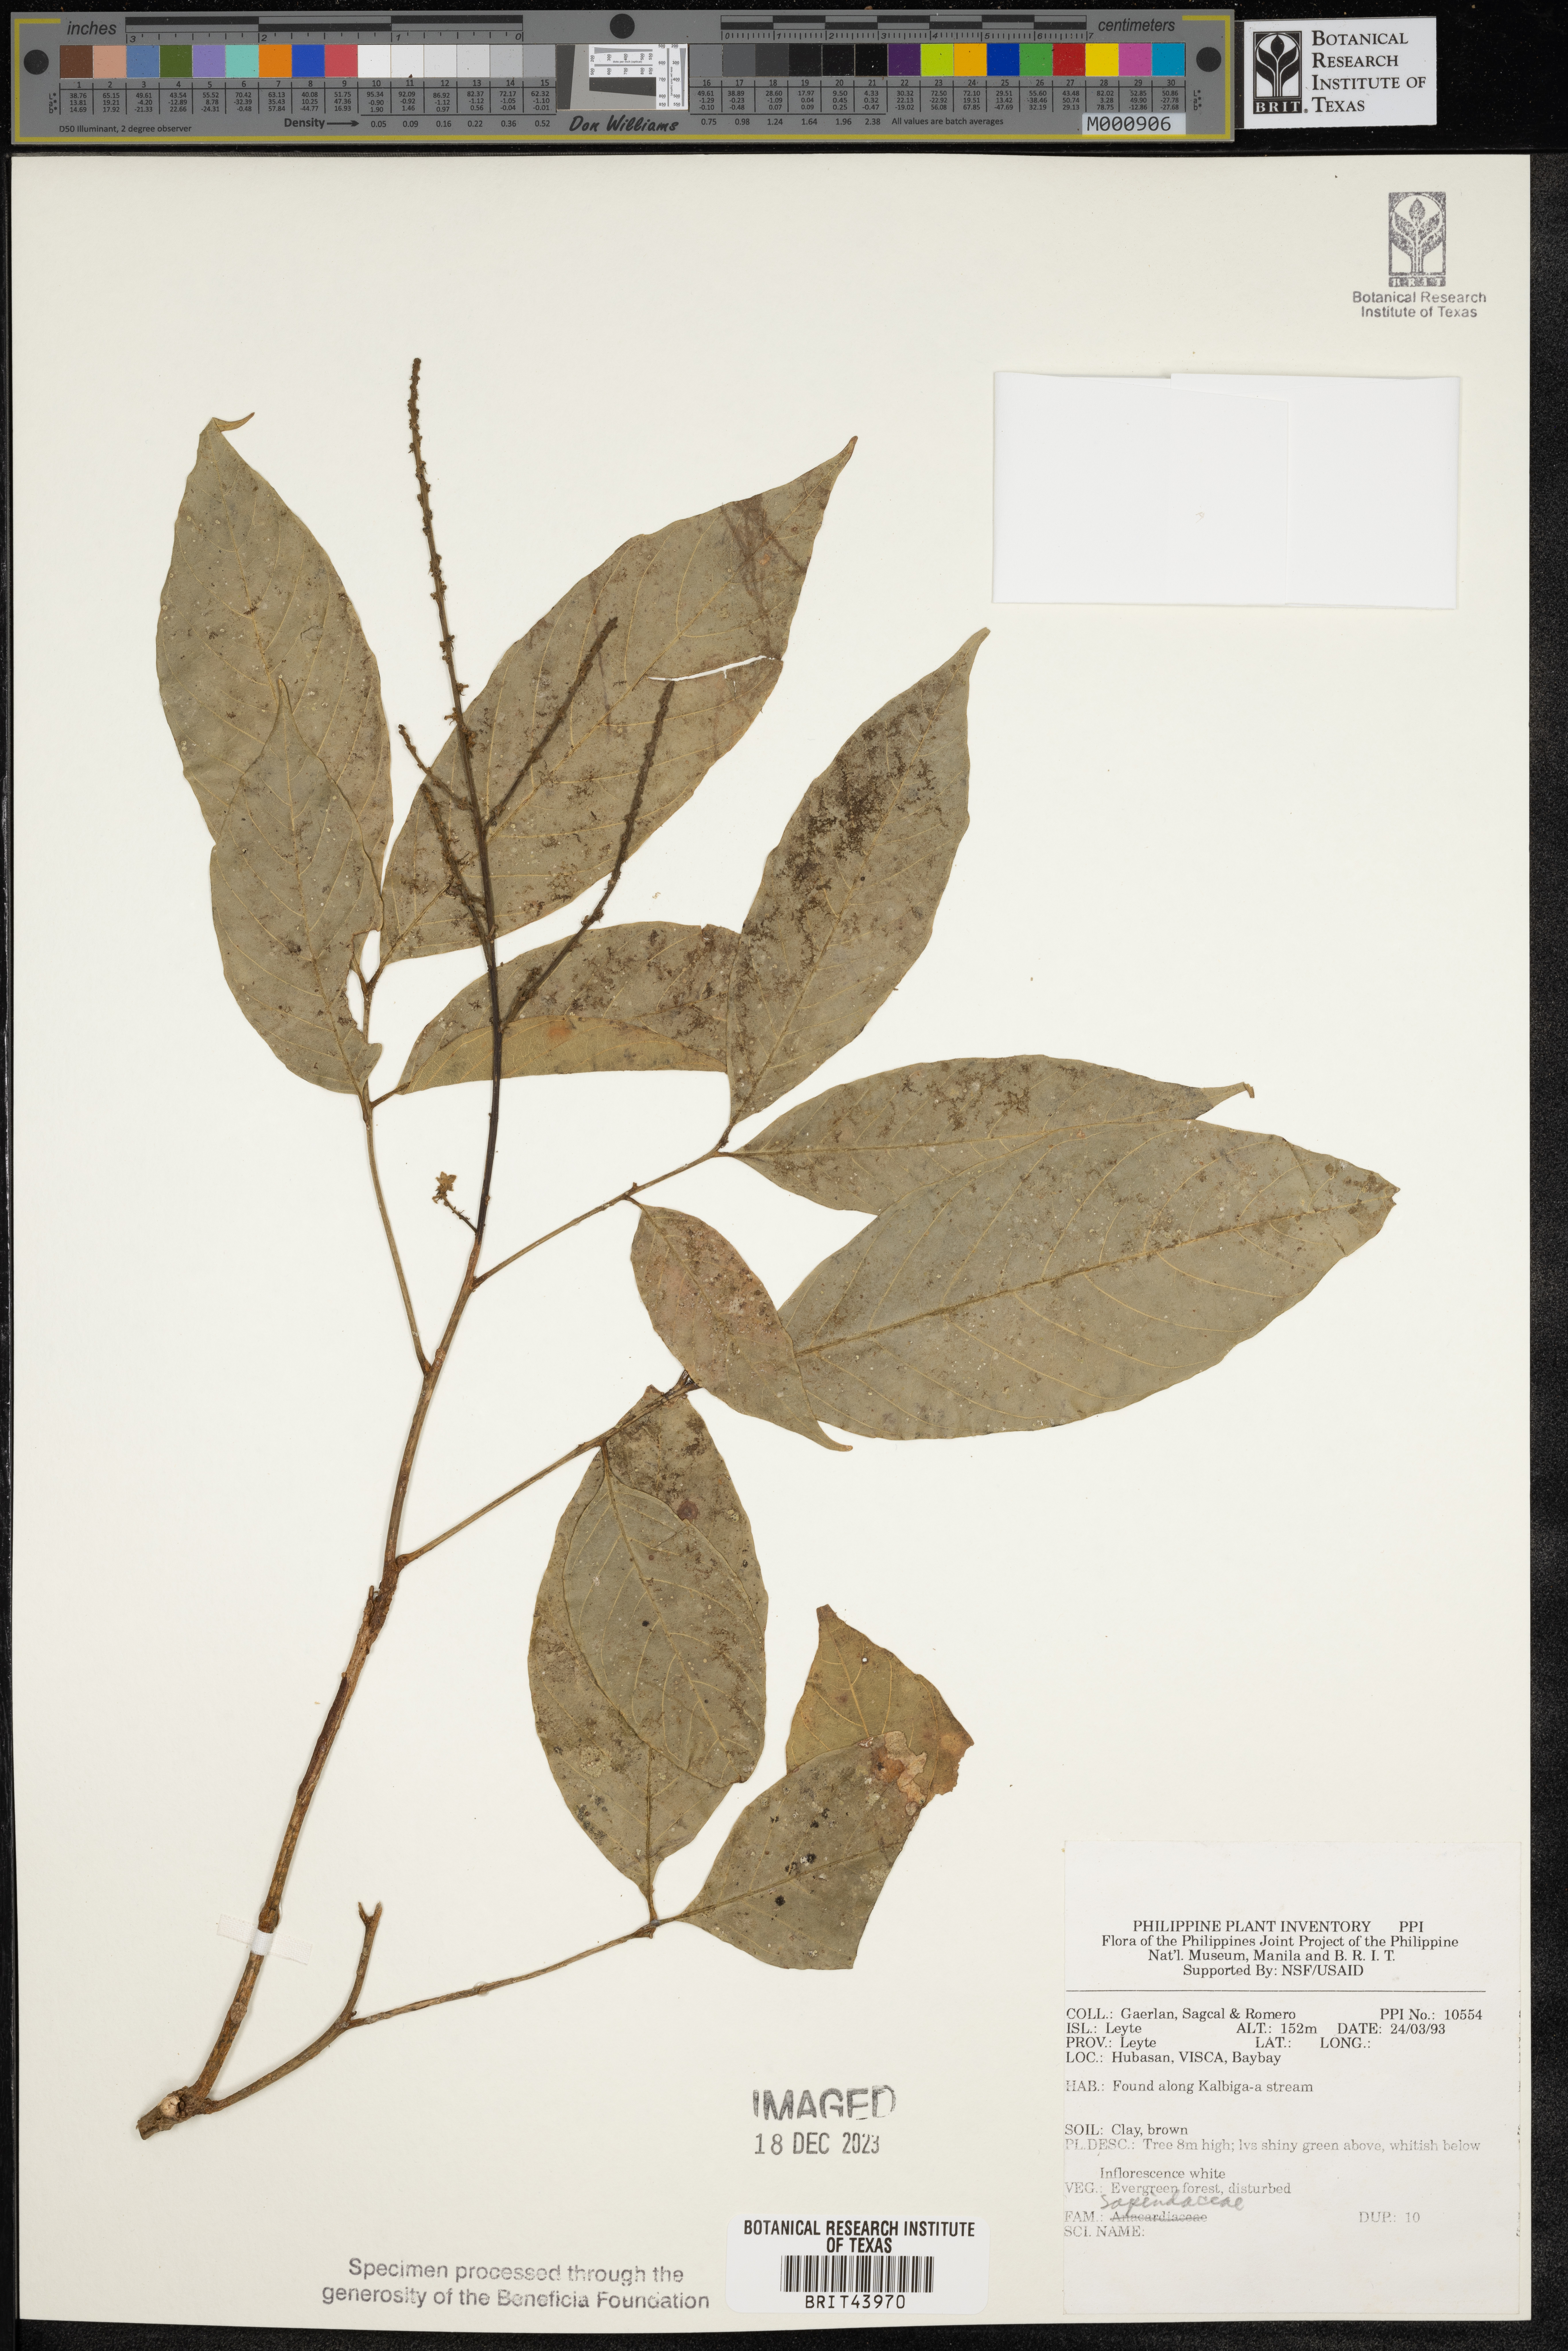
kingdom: Plantae
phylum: Tracheophyta
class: Magnoliopsida
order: Sapindales
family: Sapindaceae
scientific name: Sapindaceae
